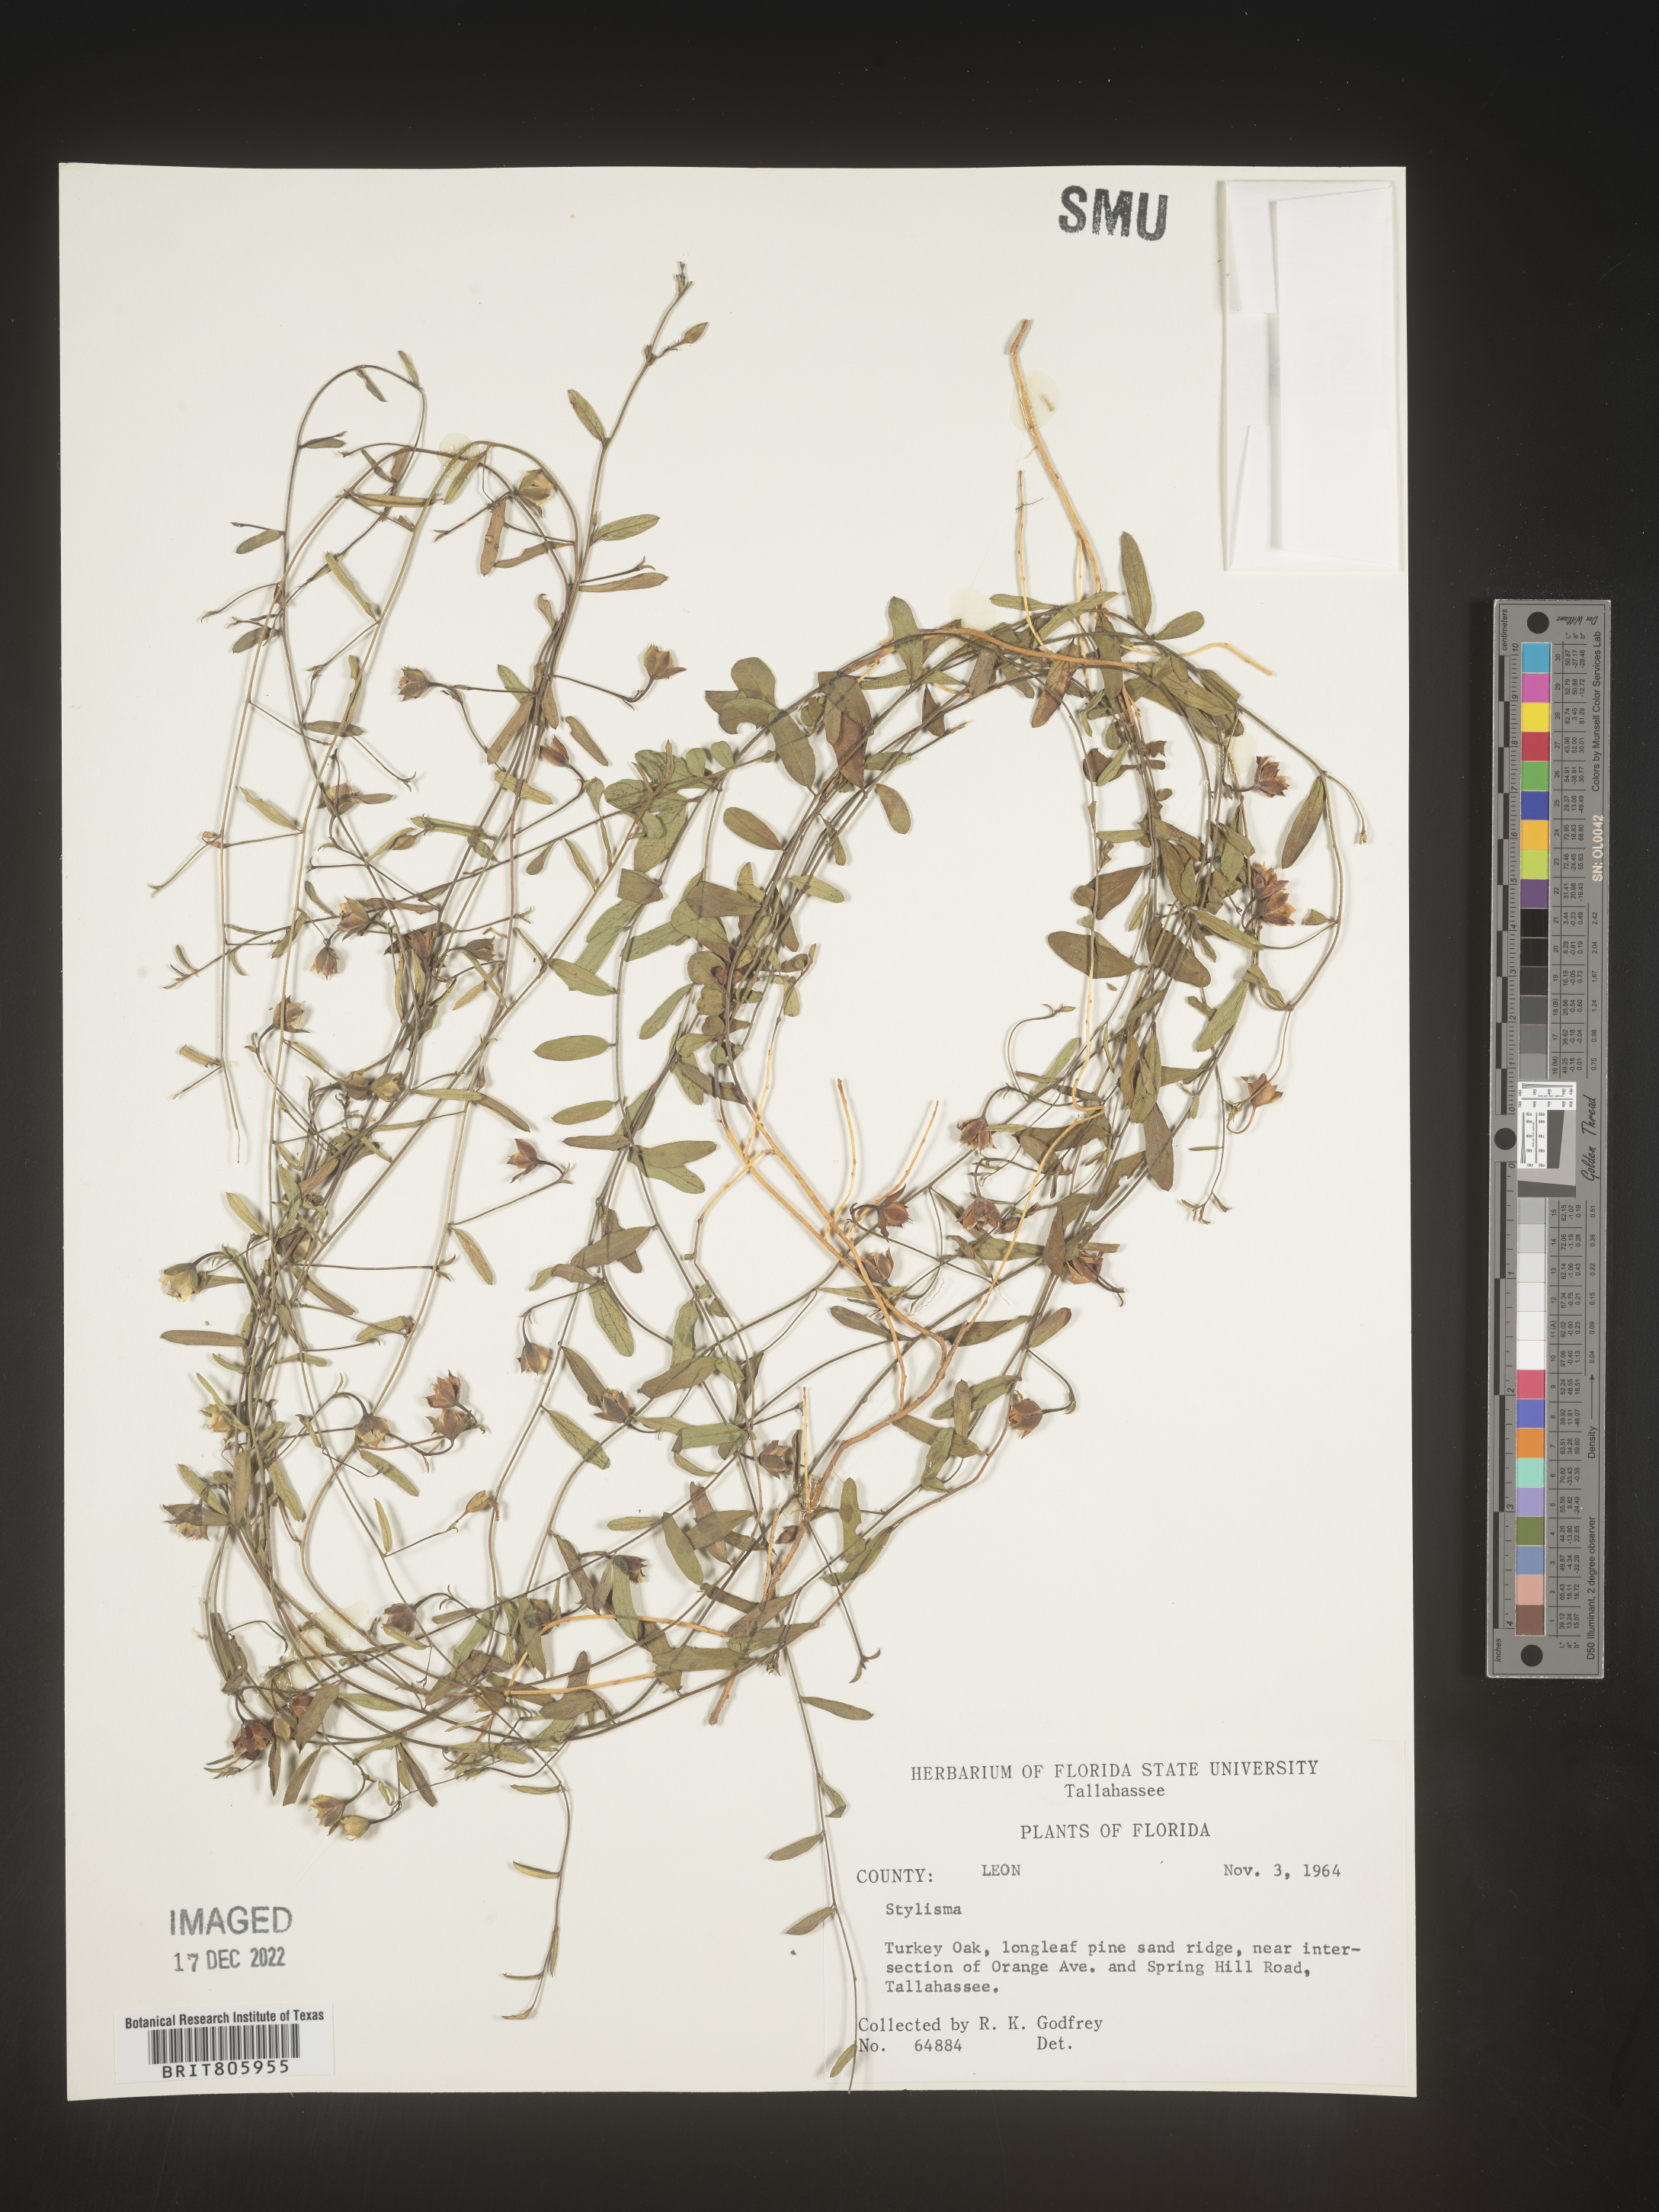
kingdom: Plantae
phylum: Tracheophyta
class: Magnoliopsida
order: Solanales
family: Convolvulaceae
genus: Stylisma
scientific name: Stylisma
